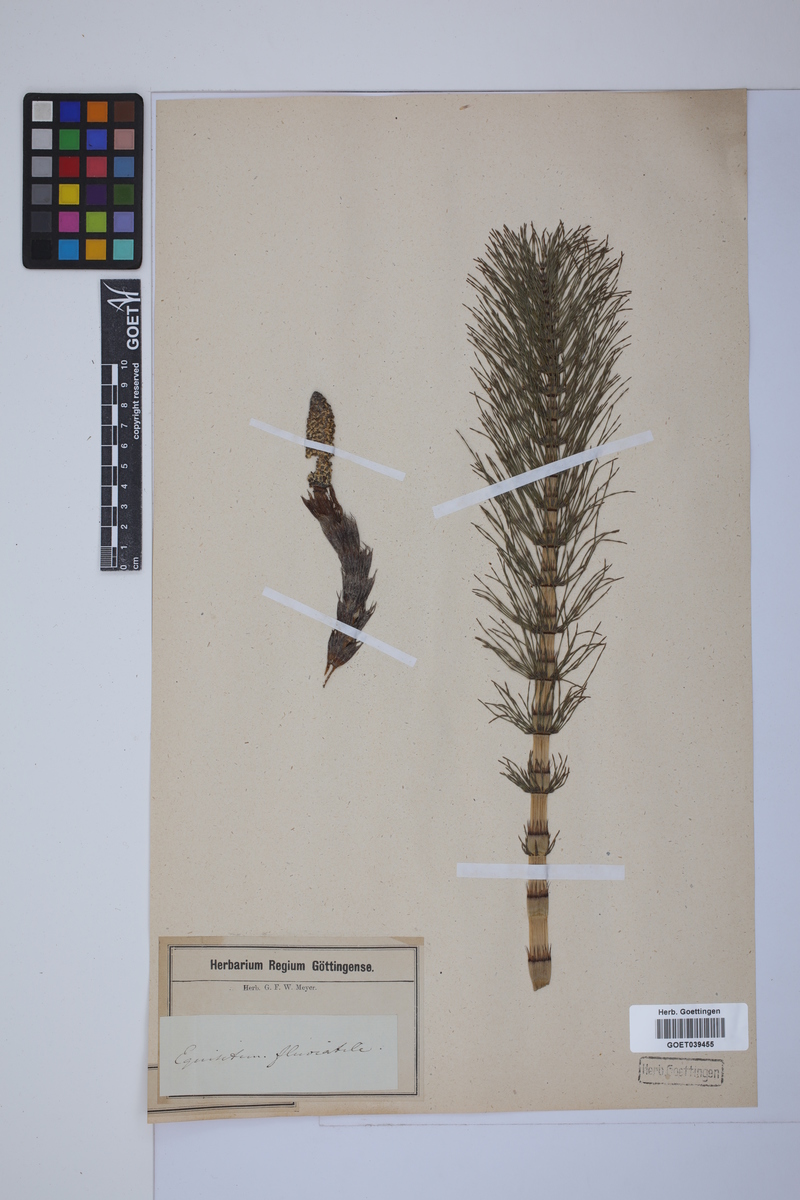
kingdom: Plantae
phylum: Tracheophyta
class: Polypodiopsida
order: Equisetales
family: Equisetaceae
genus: Equisetum
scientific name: Equisetum telmateia
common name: Great horsetail
